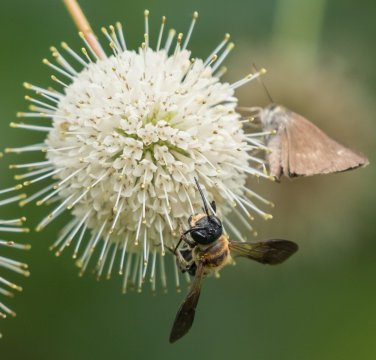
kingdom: Animalia
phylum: Arthropoda
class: Insecta
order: Lepidoptera
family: Hesperiidae
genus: Polites
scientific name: Polites
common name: Crossline Skipper
